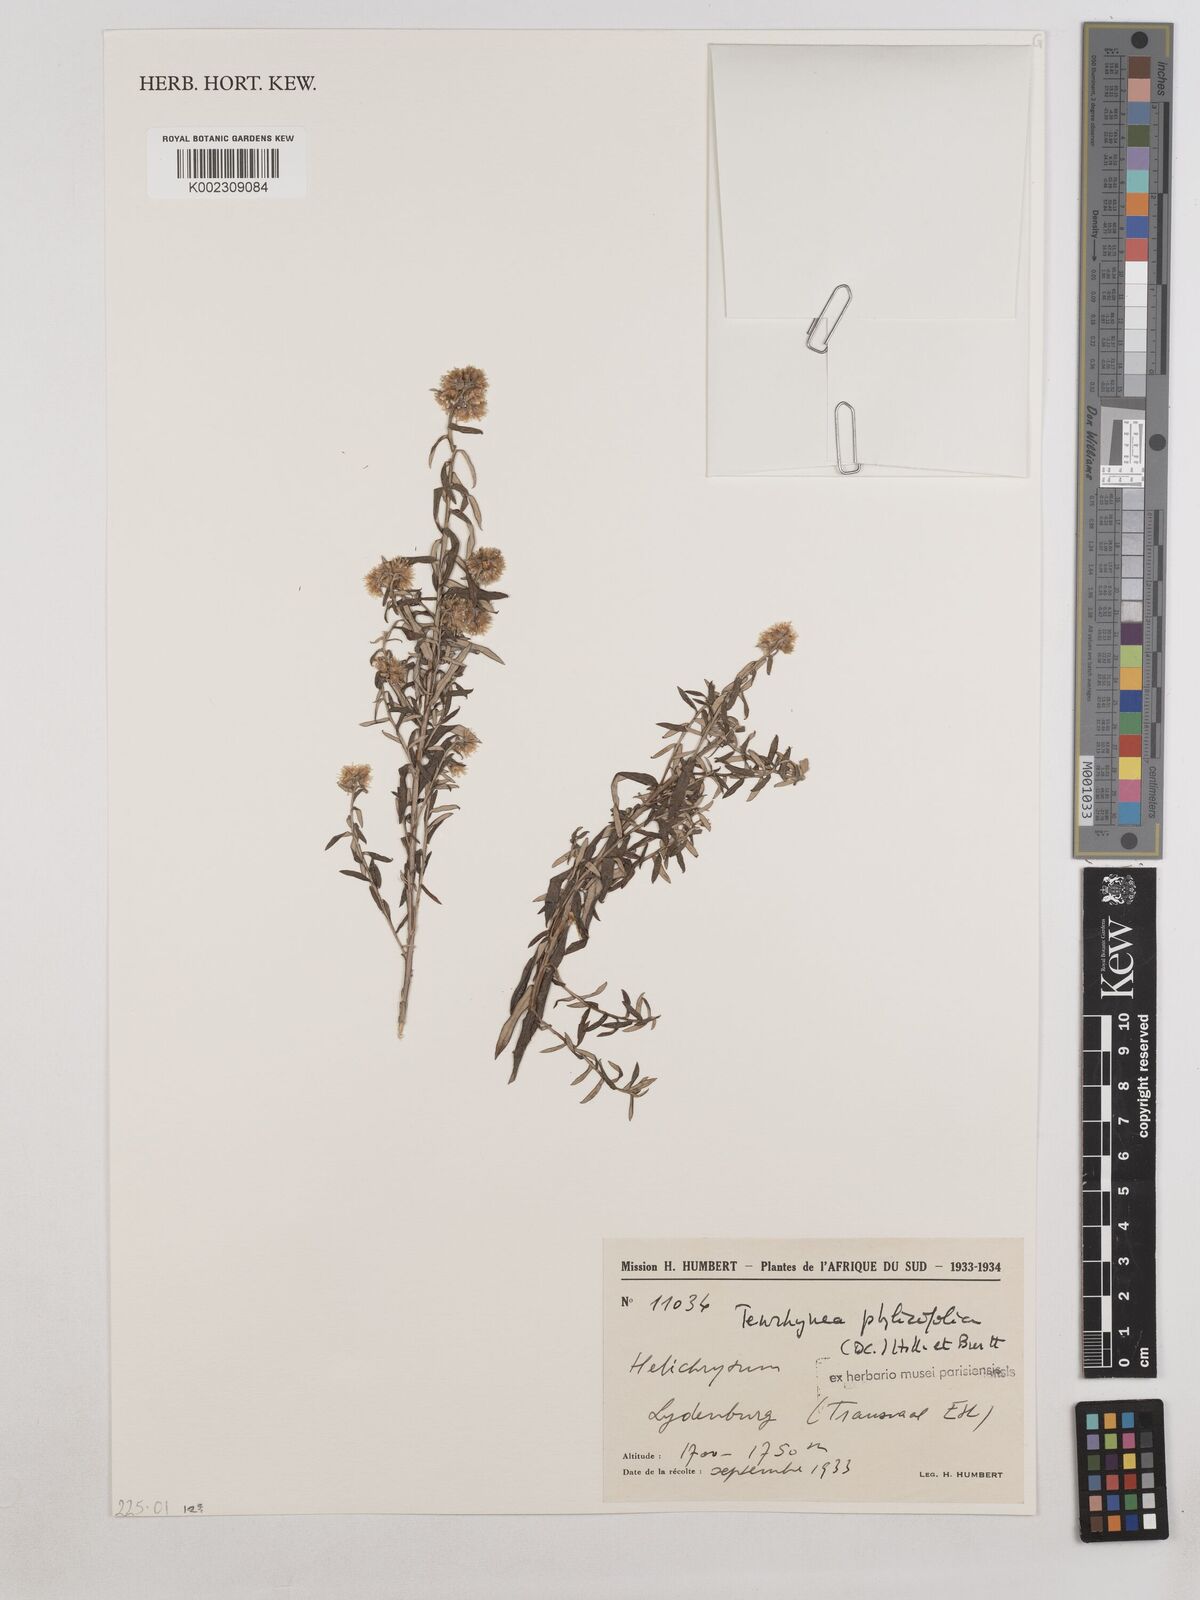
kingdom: Plantae
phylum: Tracheophyta
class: Magnoliopsida
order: Asterales
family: Asteraceae
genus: Tenrhynea
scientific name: Tenrhynea phylicifolia
